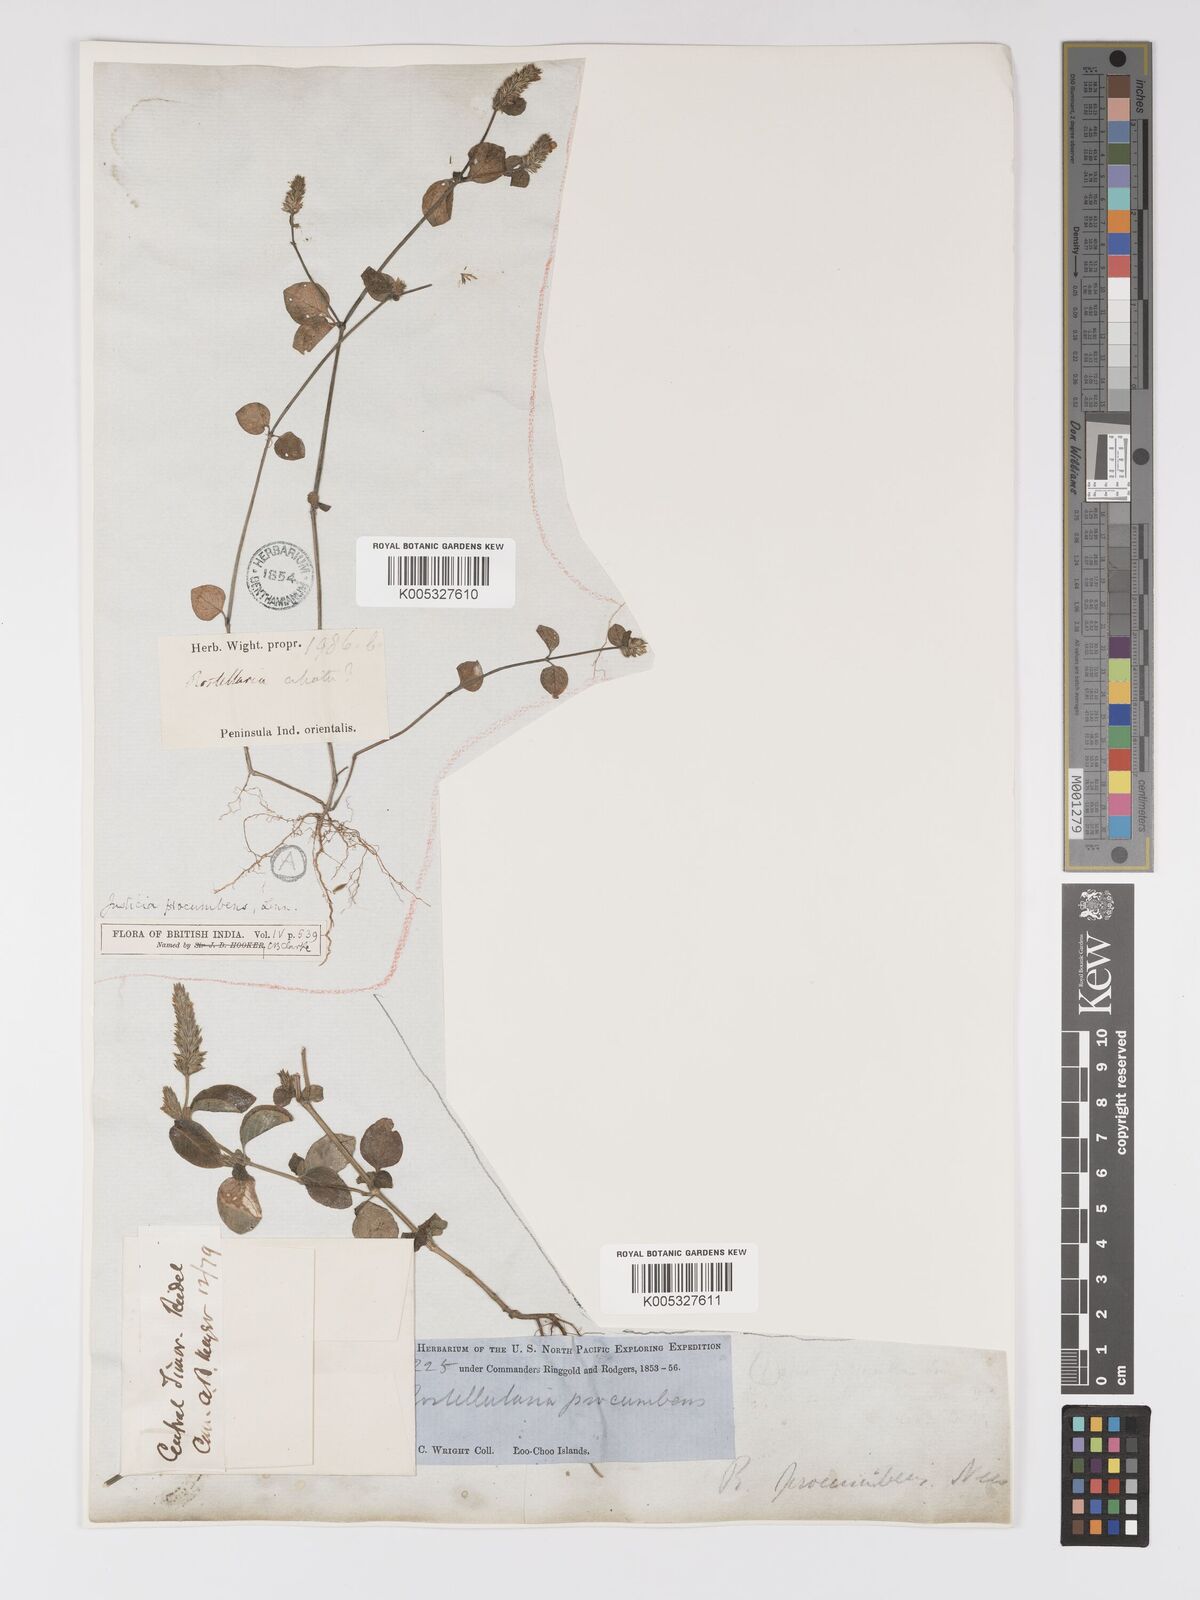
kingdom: Plantae
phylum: Tracheophyta
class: Magnoliopsida
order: Lamiales
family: Acanthaceae
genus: Rostellularia
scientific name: Rostellularia procumbens
